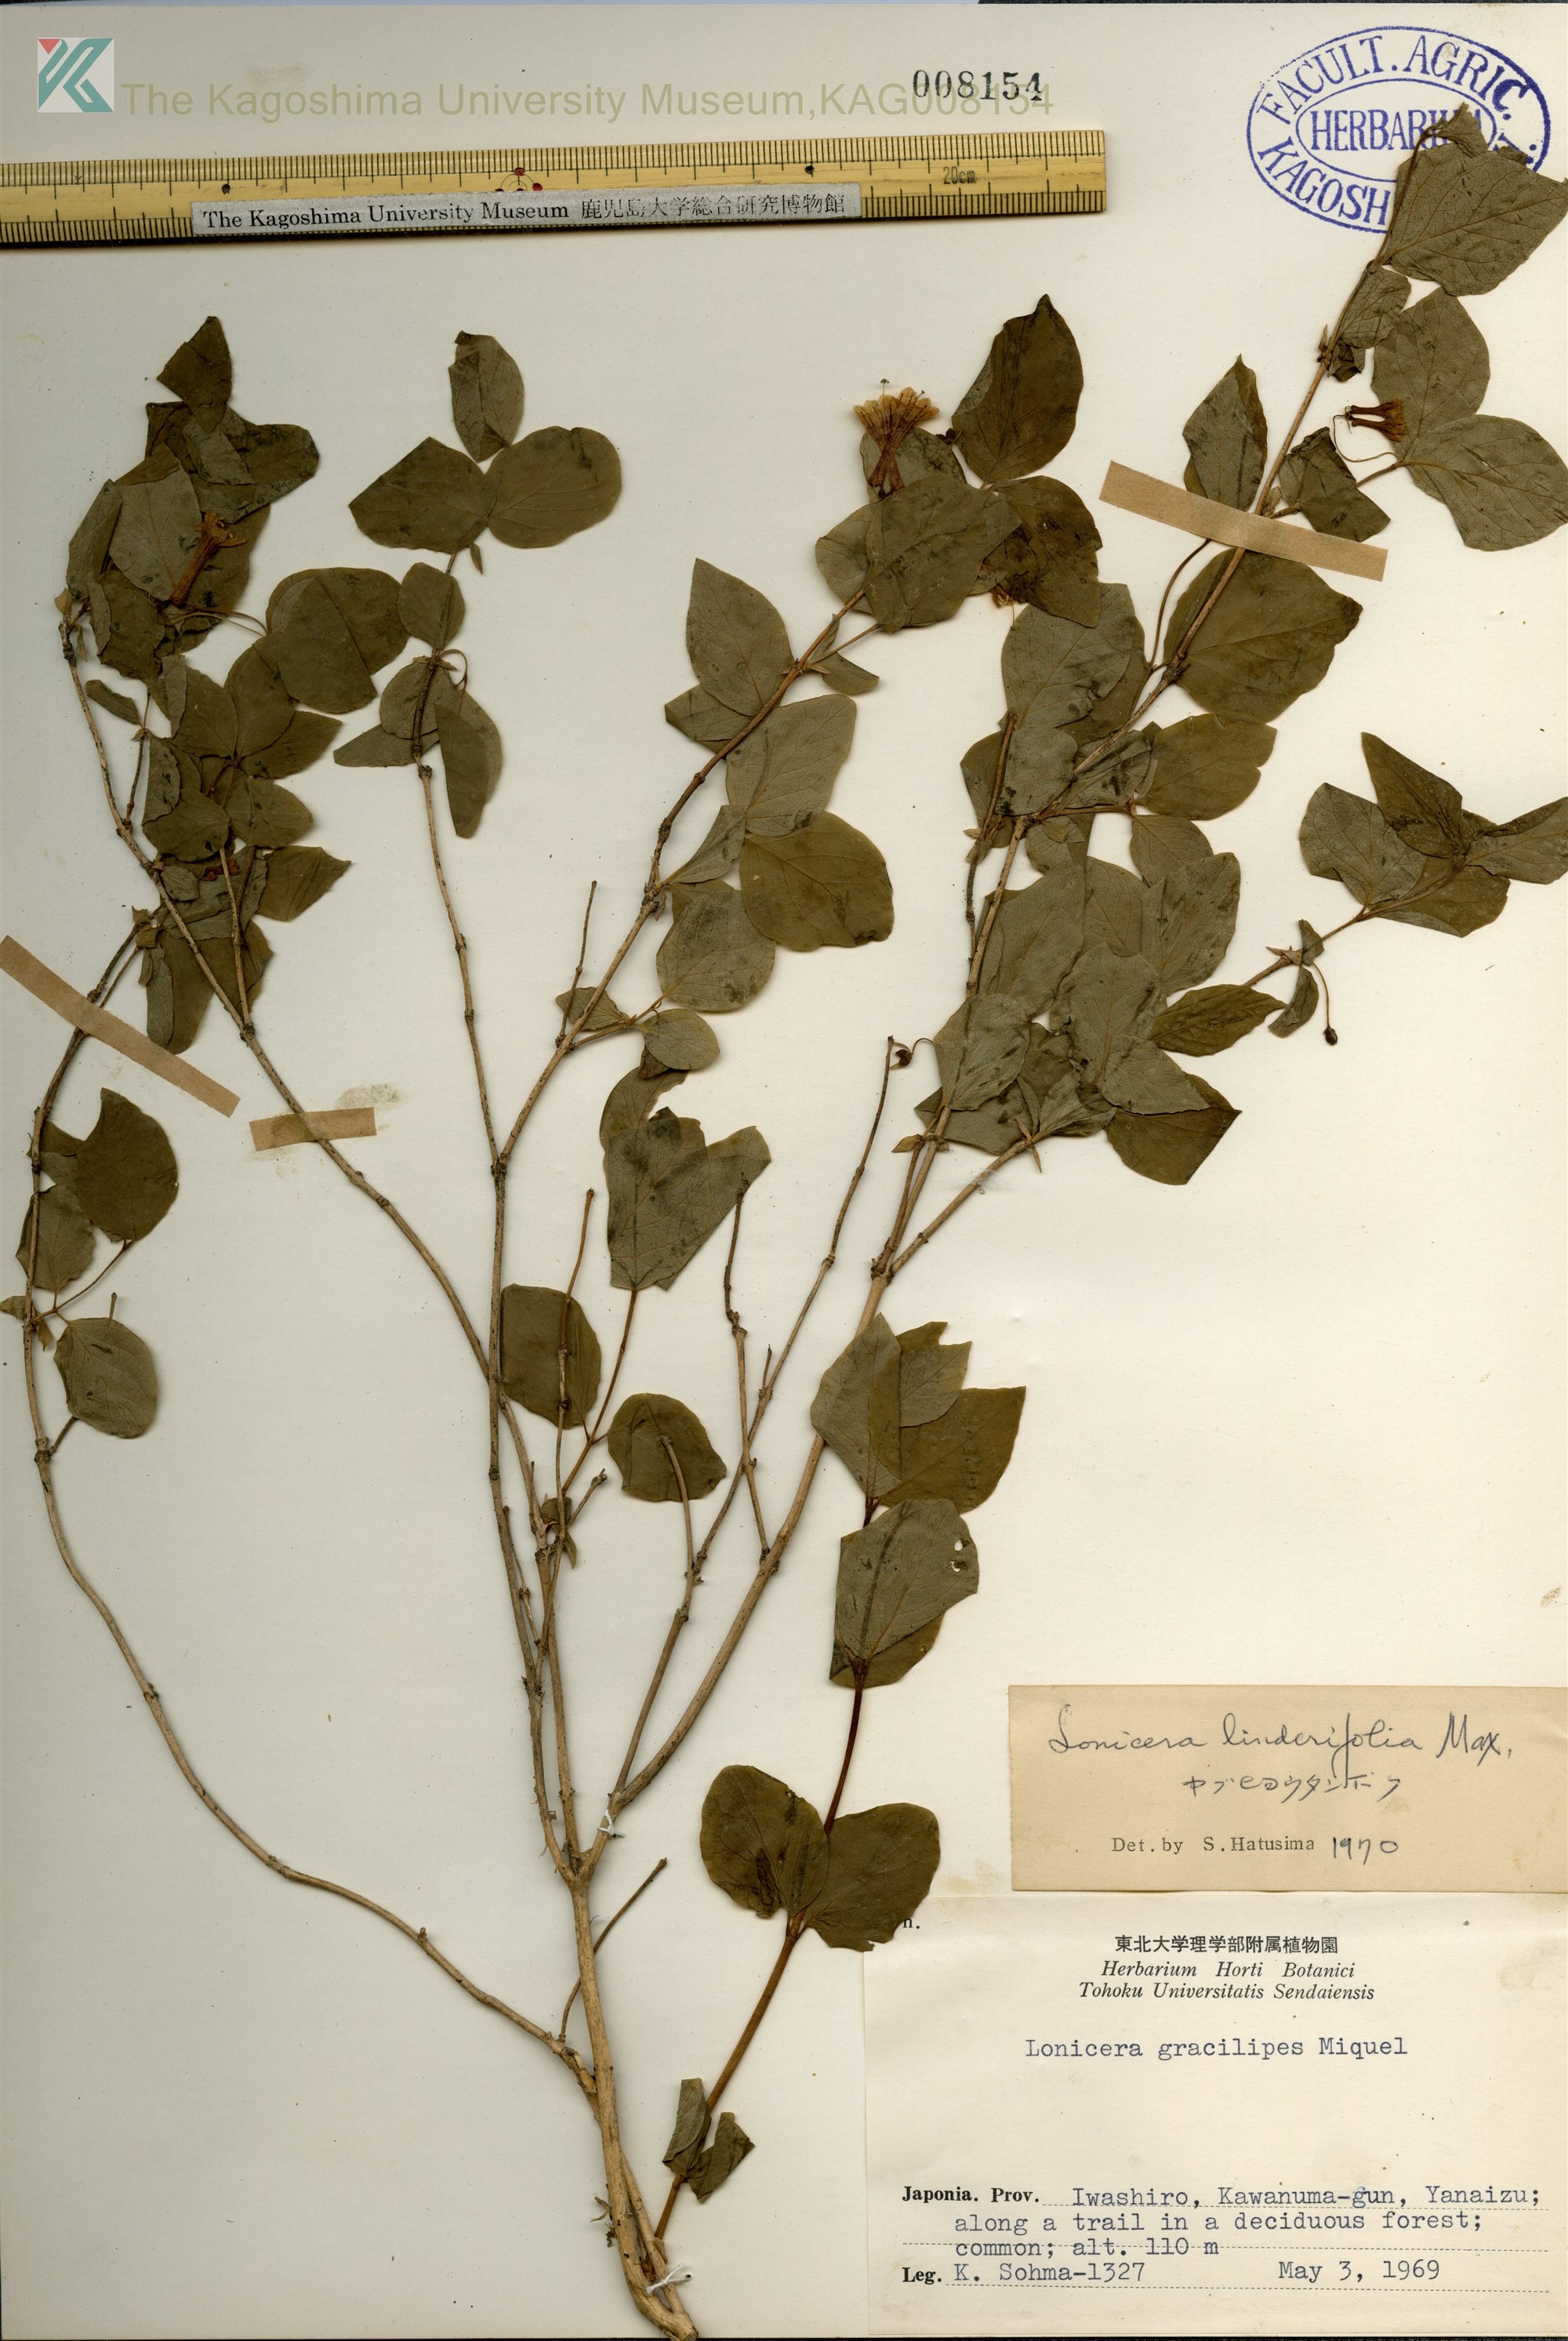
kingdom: Plantae
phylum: Tracheophyta
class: Magnoliopsida
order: Dipsacales
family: Caprifoliaceae
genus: Lonicera
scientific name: Lonicera linderifolia
